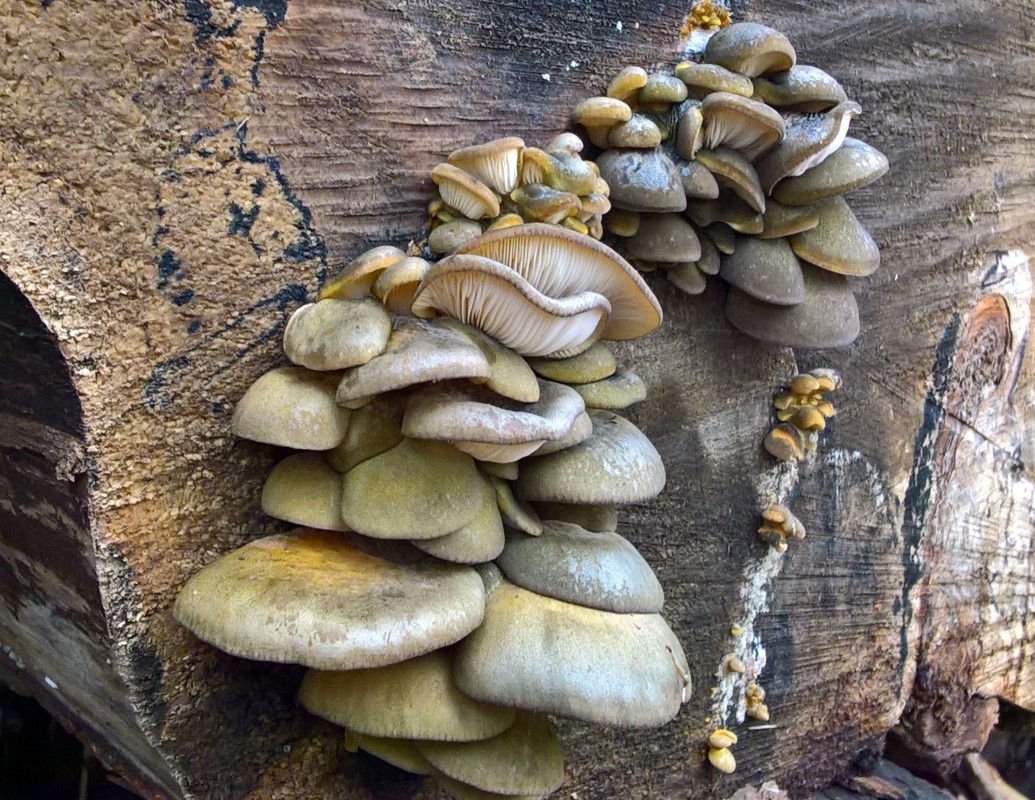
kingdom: Fungi
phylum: Basidiomycota
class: Agaricomycetes
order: Agaricales
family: Sarcomyxaceae
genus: Sarcomyxa
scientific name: Sarcomyxa serotina
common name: gummihat
